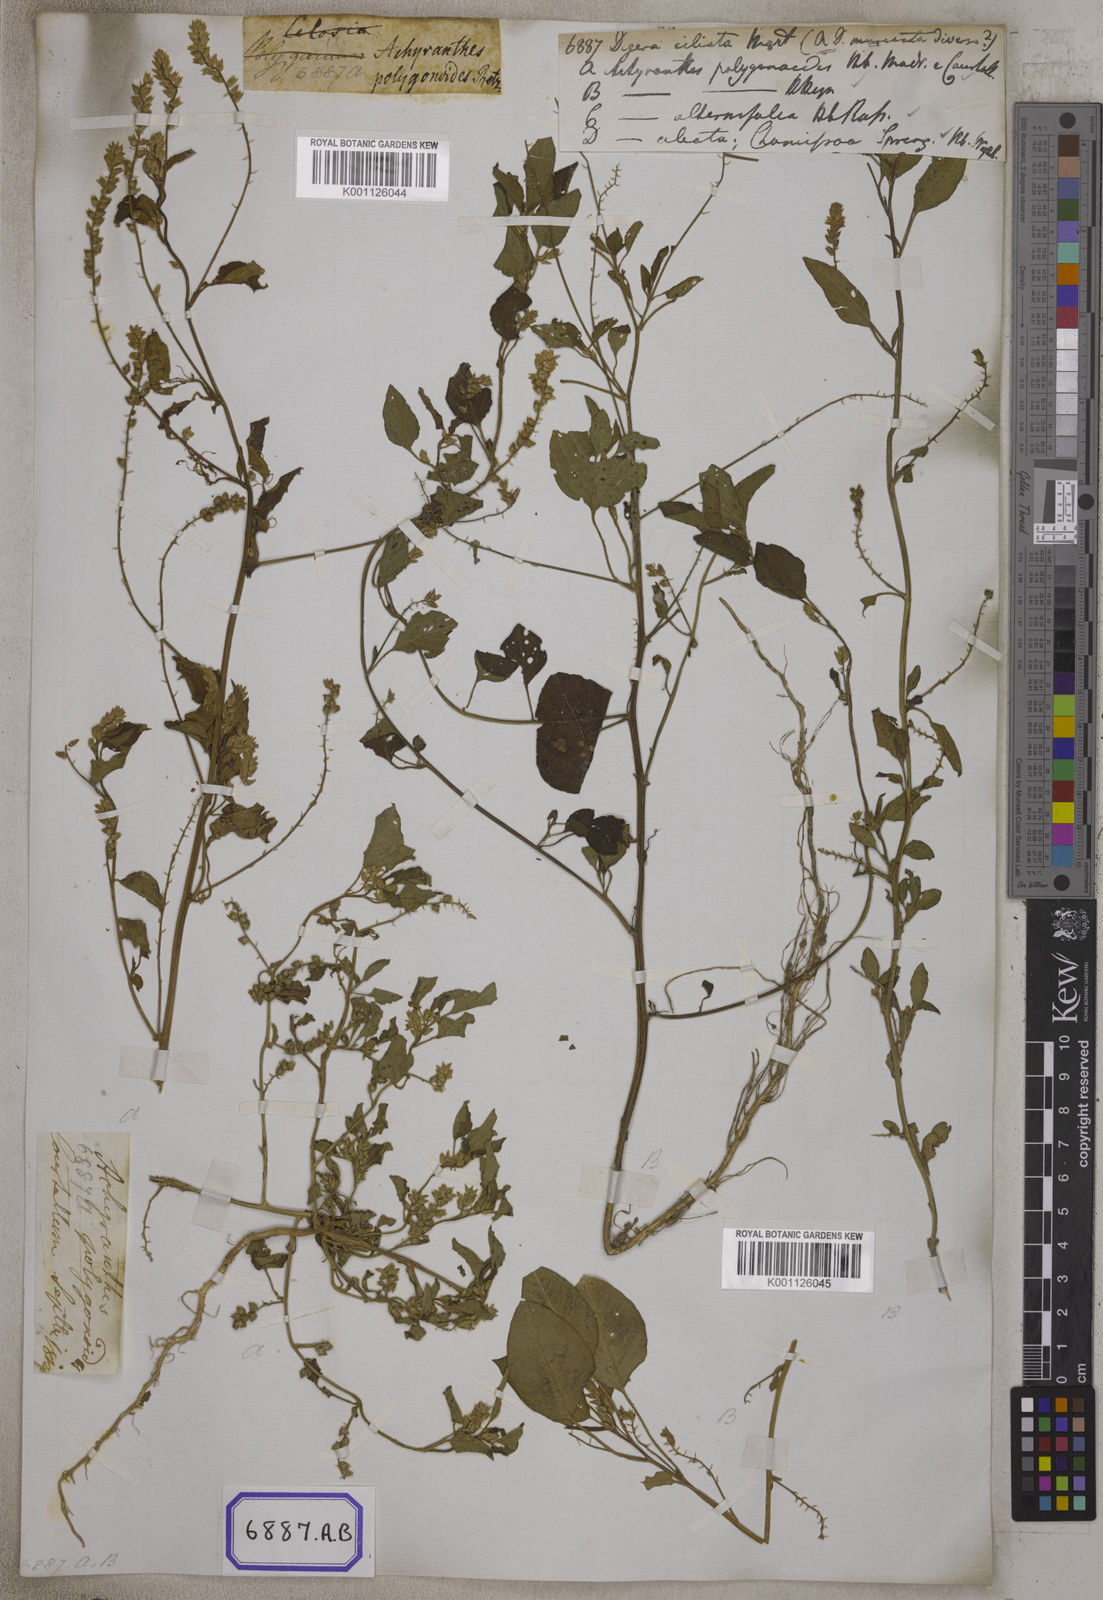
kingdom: Plantae
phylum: Tracheophyta
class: Magnoliopsida
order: Caryophyllales
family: Amaranthaceae
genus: Digera
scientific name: Digera muricata
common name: False amaranth
